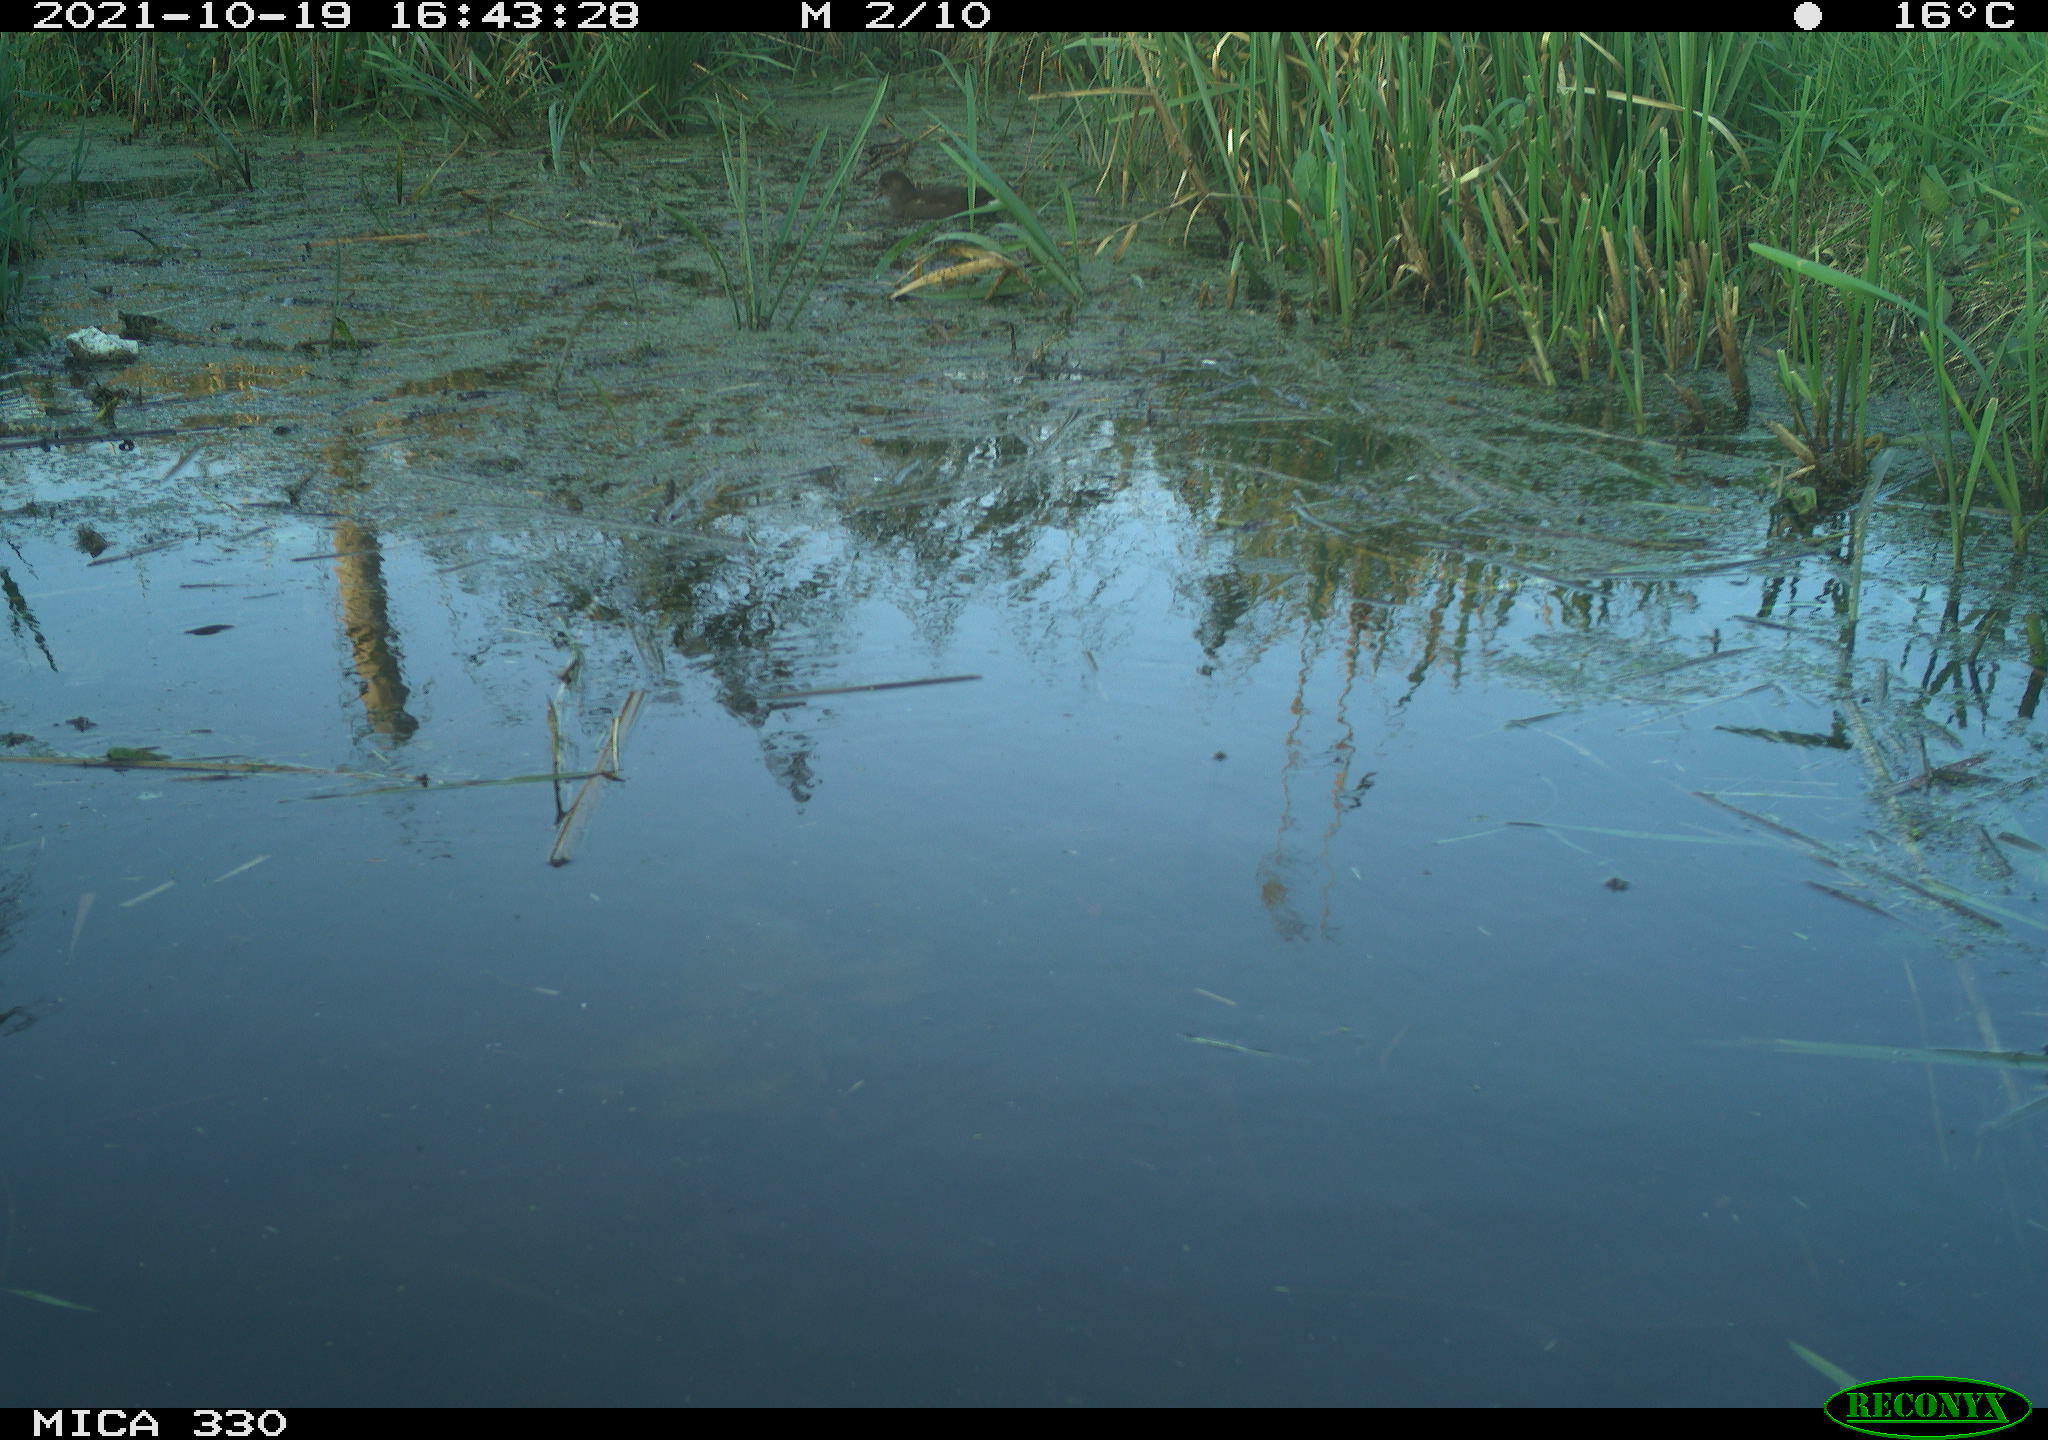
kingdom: Animalia
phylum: Chordata
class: Aves
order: Gruiformes
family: Rallidae
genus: Gallinula
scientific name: Gallinula chloropus
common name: Common moorhen
